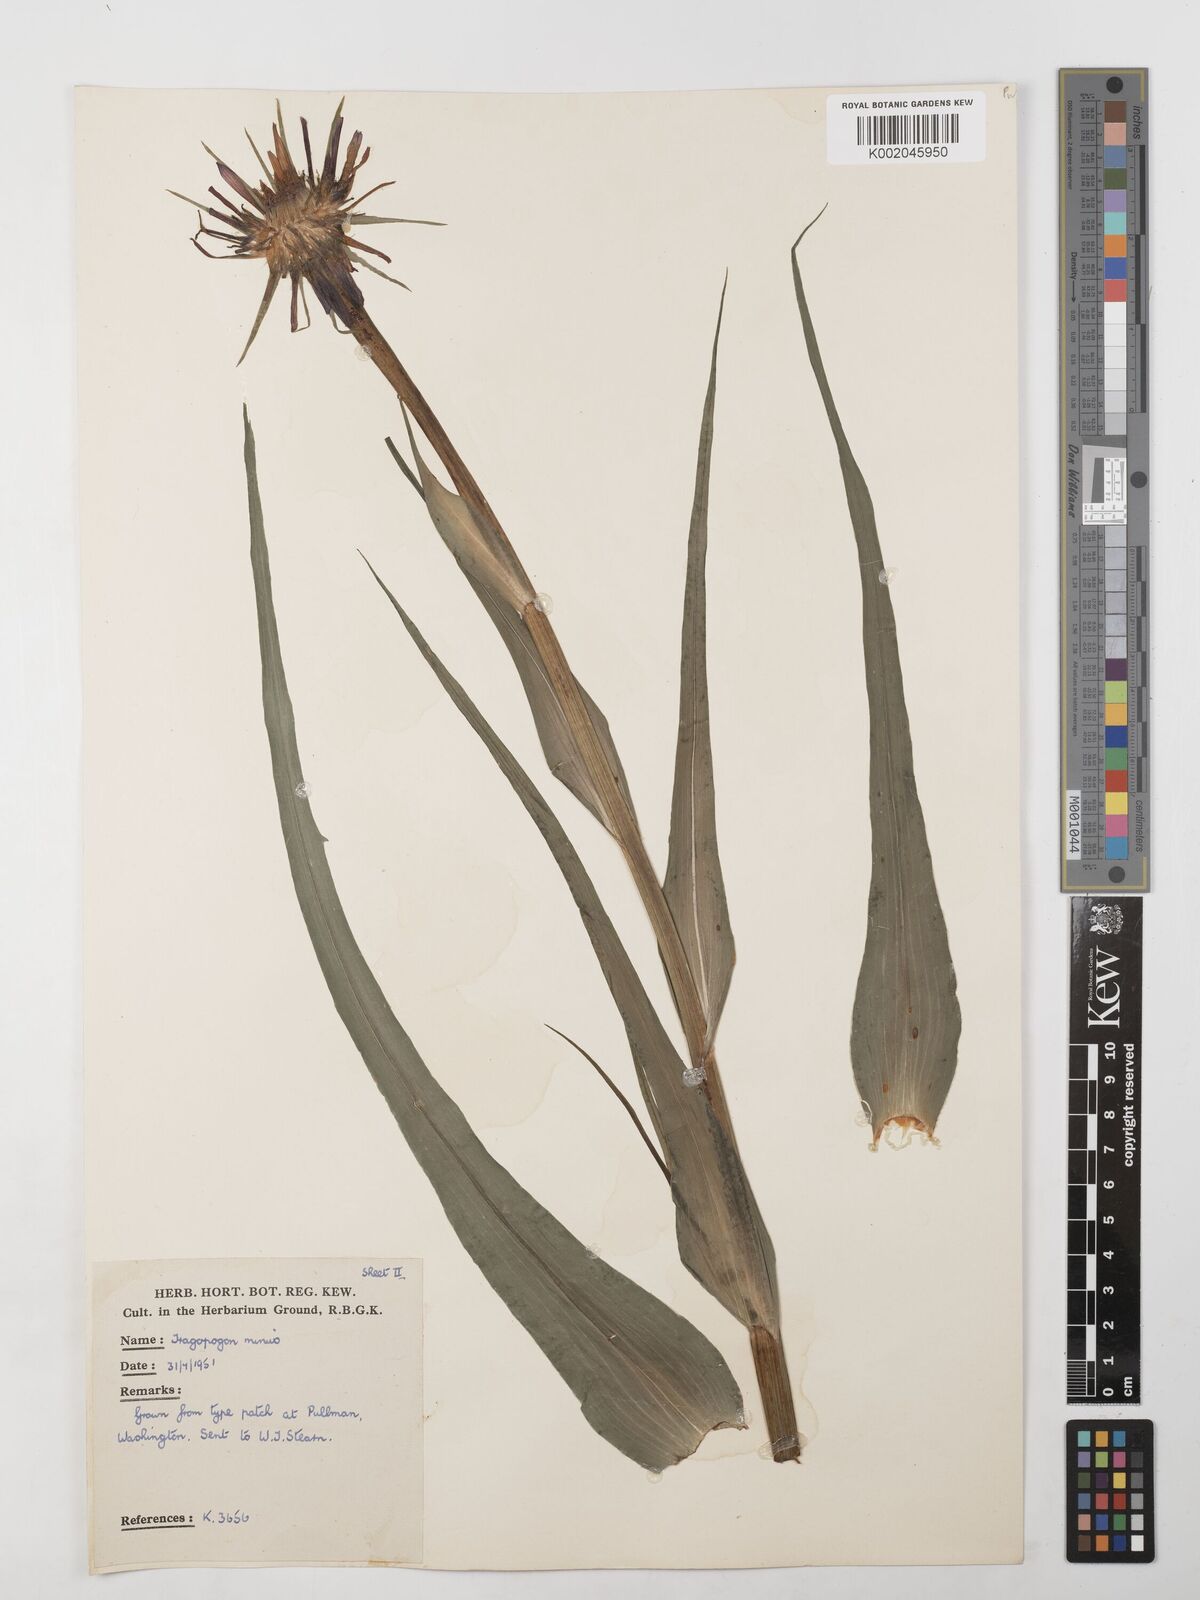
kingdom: Plantae
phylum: Tracheophyta
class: Magnoliopsida
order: Asterales
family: Asteraceae
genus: Tragopogon
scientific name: Tragopogon
